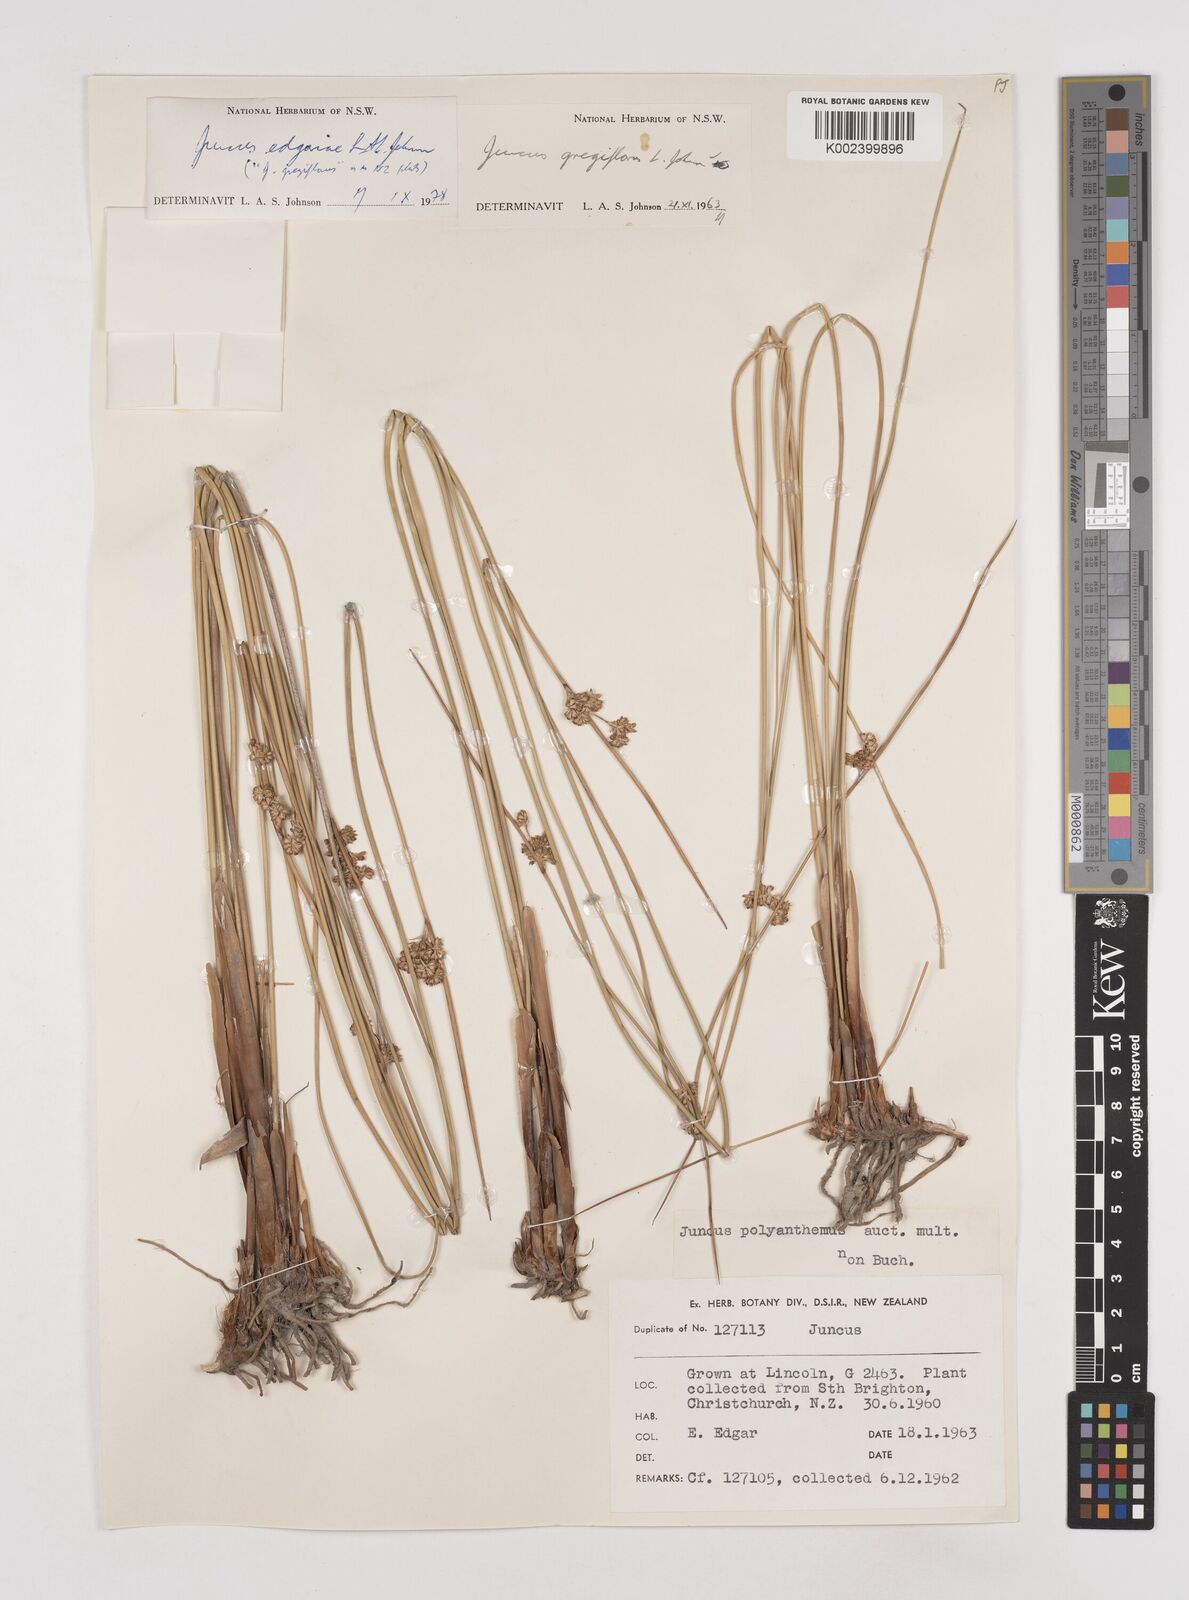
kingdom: Plantae
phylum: Tracheophyta
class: Liliopsida
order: Poales
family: Juncaceae
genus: Juncus
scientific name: Juncus edgariae
